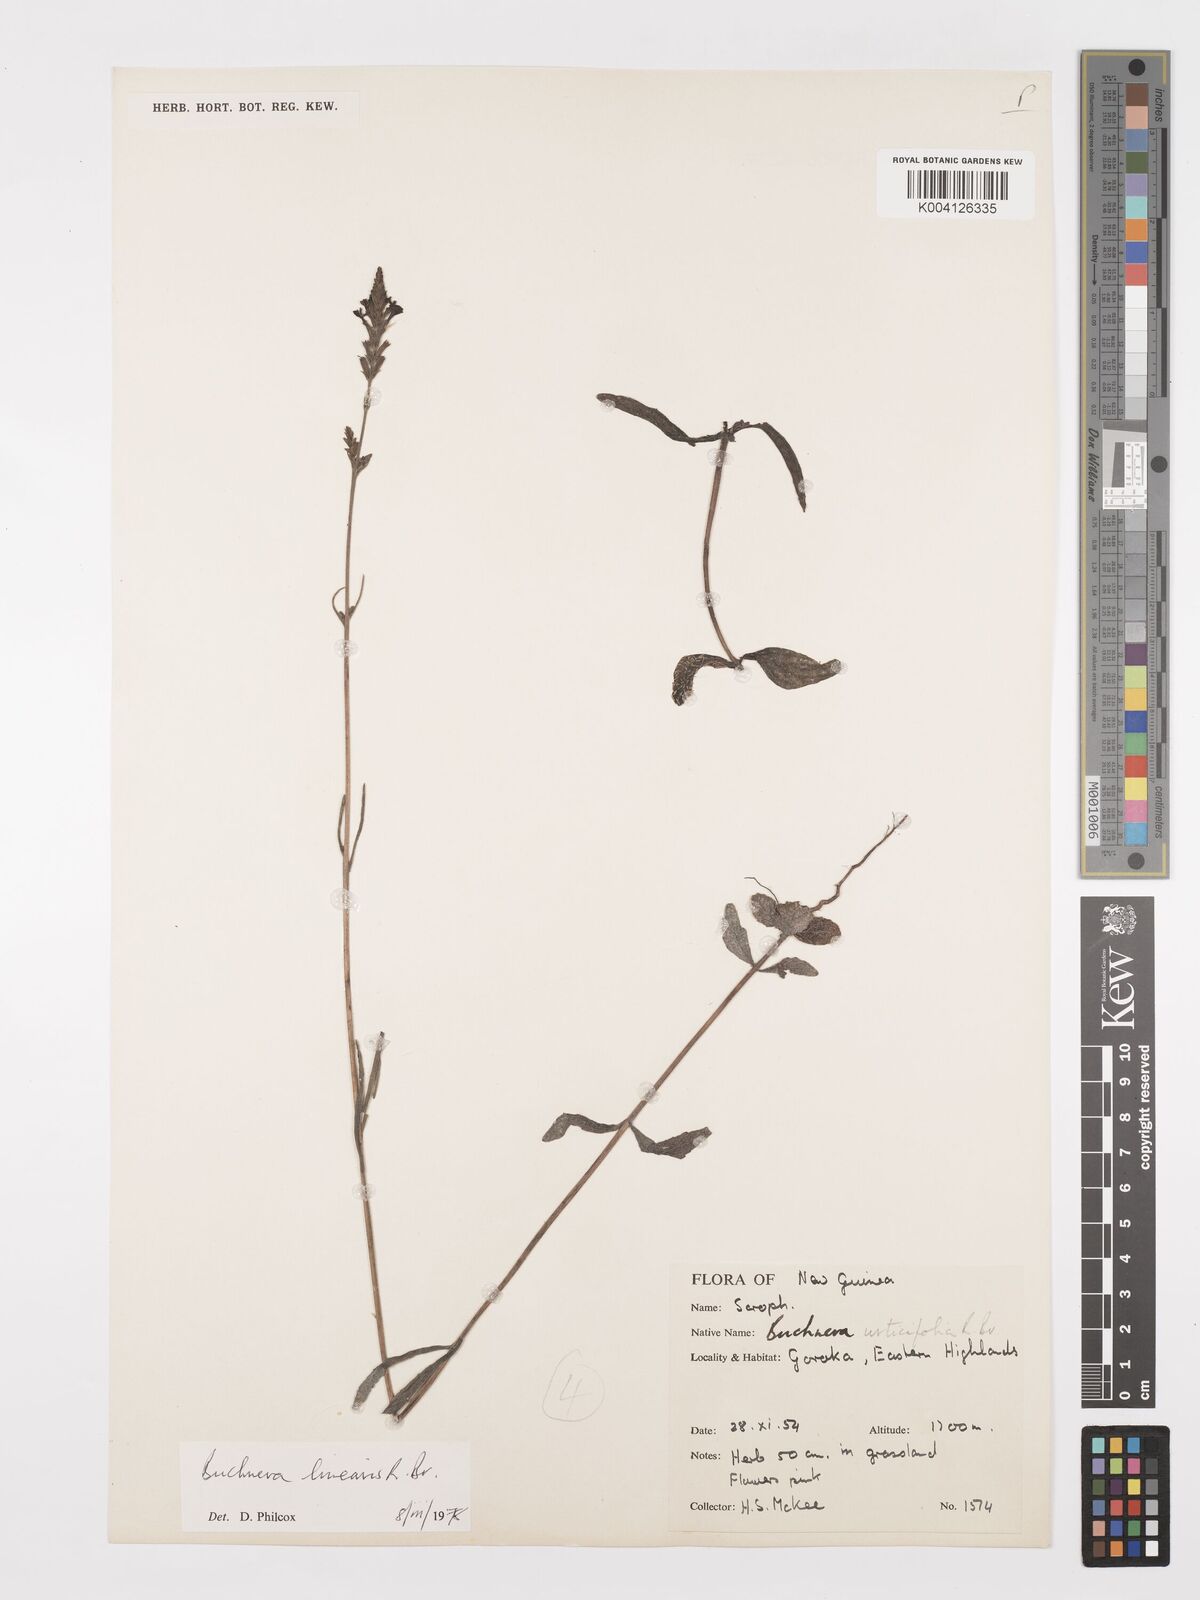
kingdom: Plantae
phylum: Tracheophyta
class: Magnoliopsida
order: Lamiales
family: Orobanchaceae
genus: Buchnera
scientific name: Buchnera linearis
